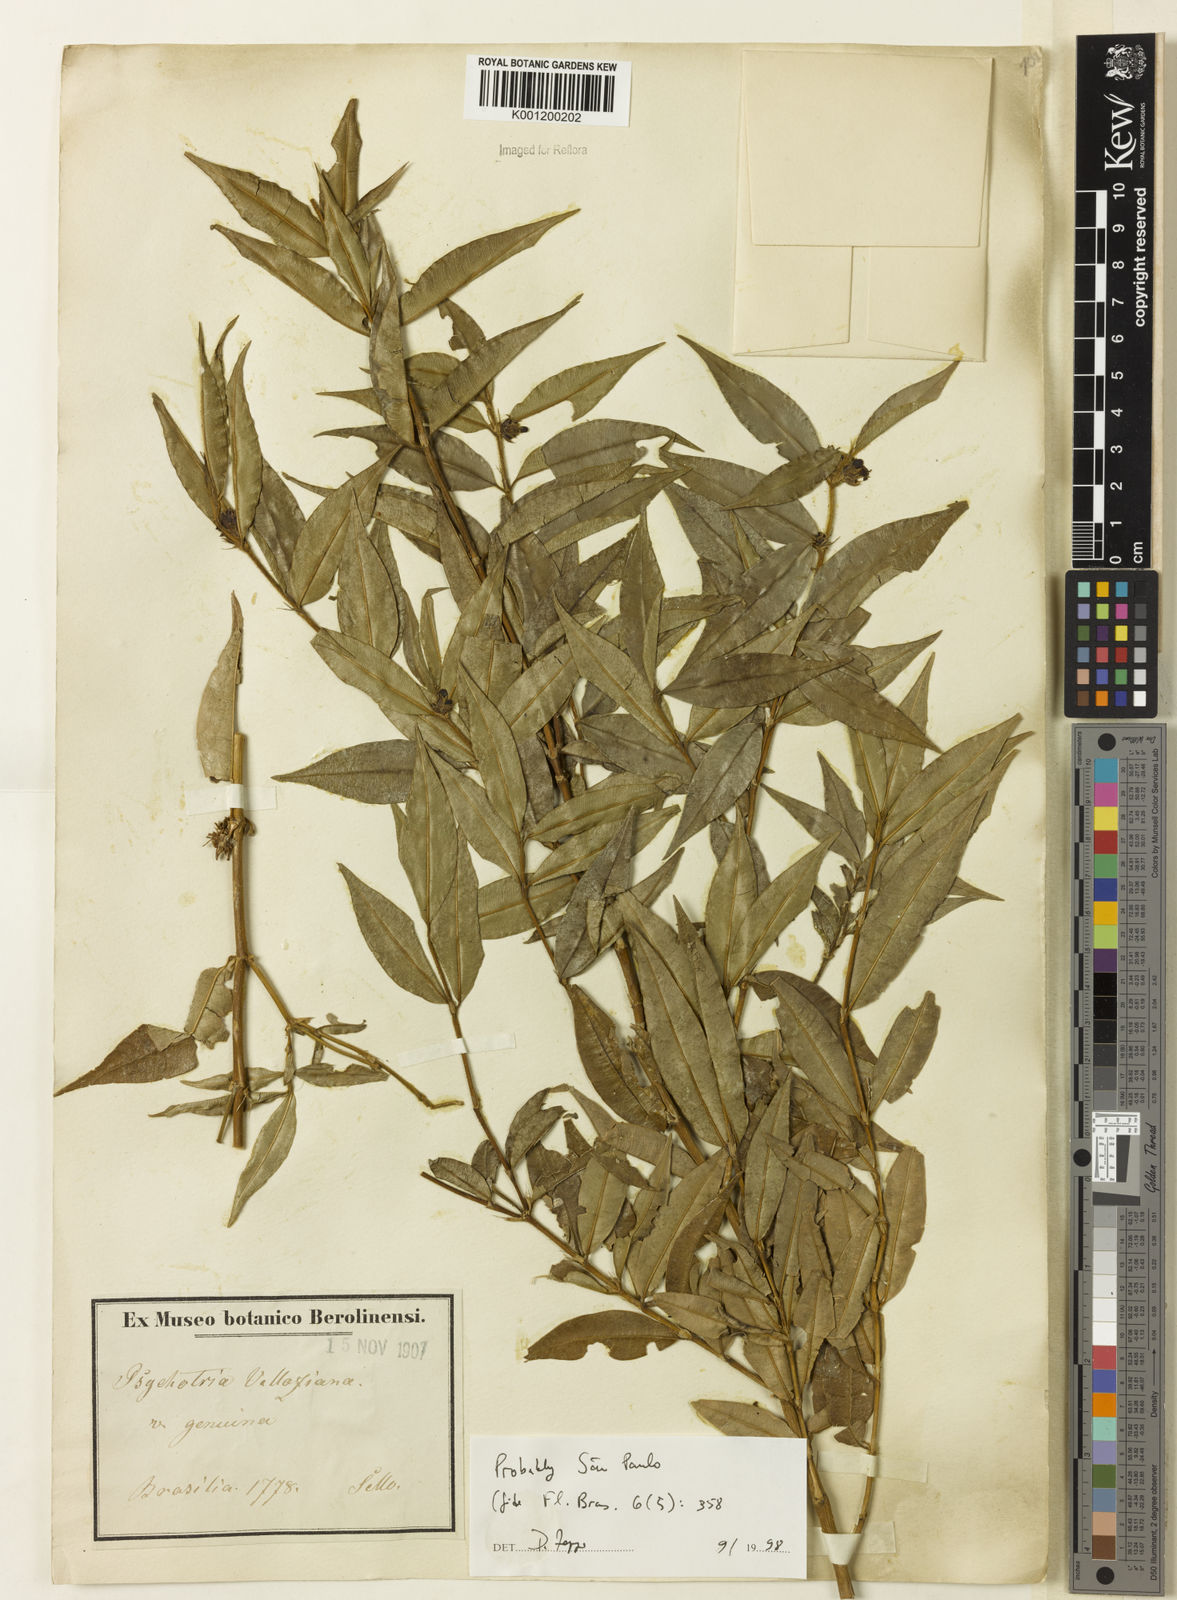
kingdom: Plantae
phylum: Tracheophyta
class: Magnoliopsida
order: Gentianales
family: Rubiaceae
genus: Rudgea
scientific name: Rudgea sessilis
